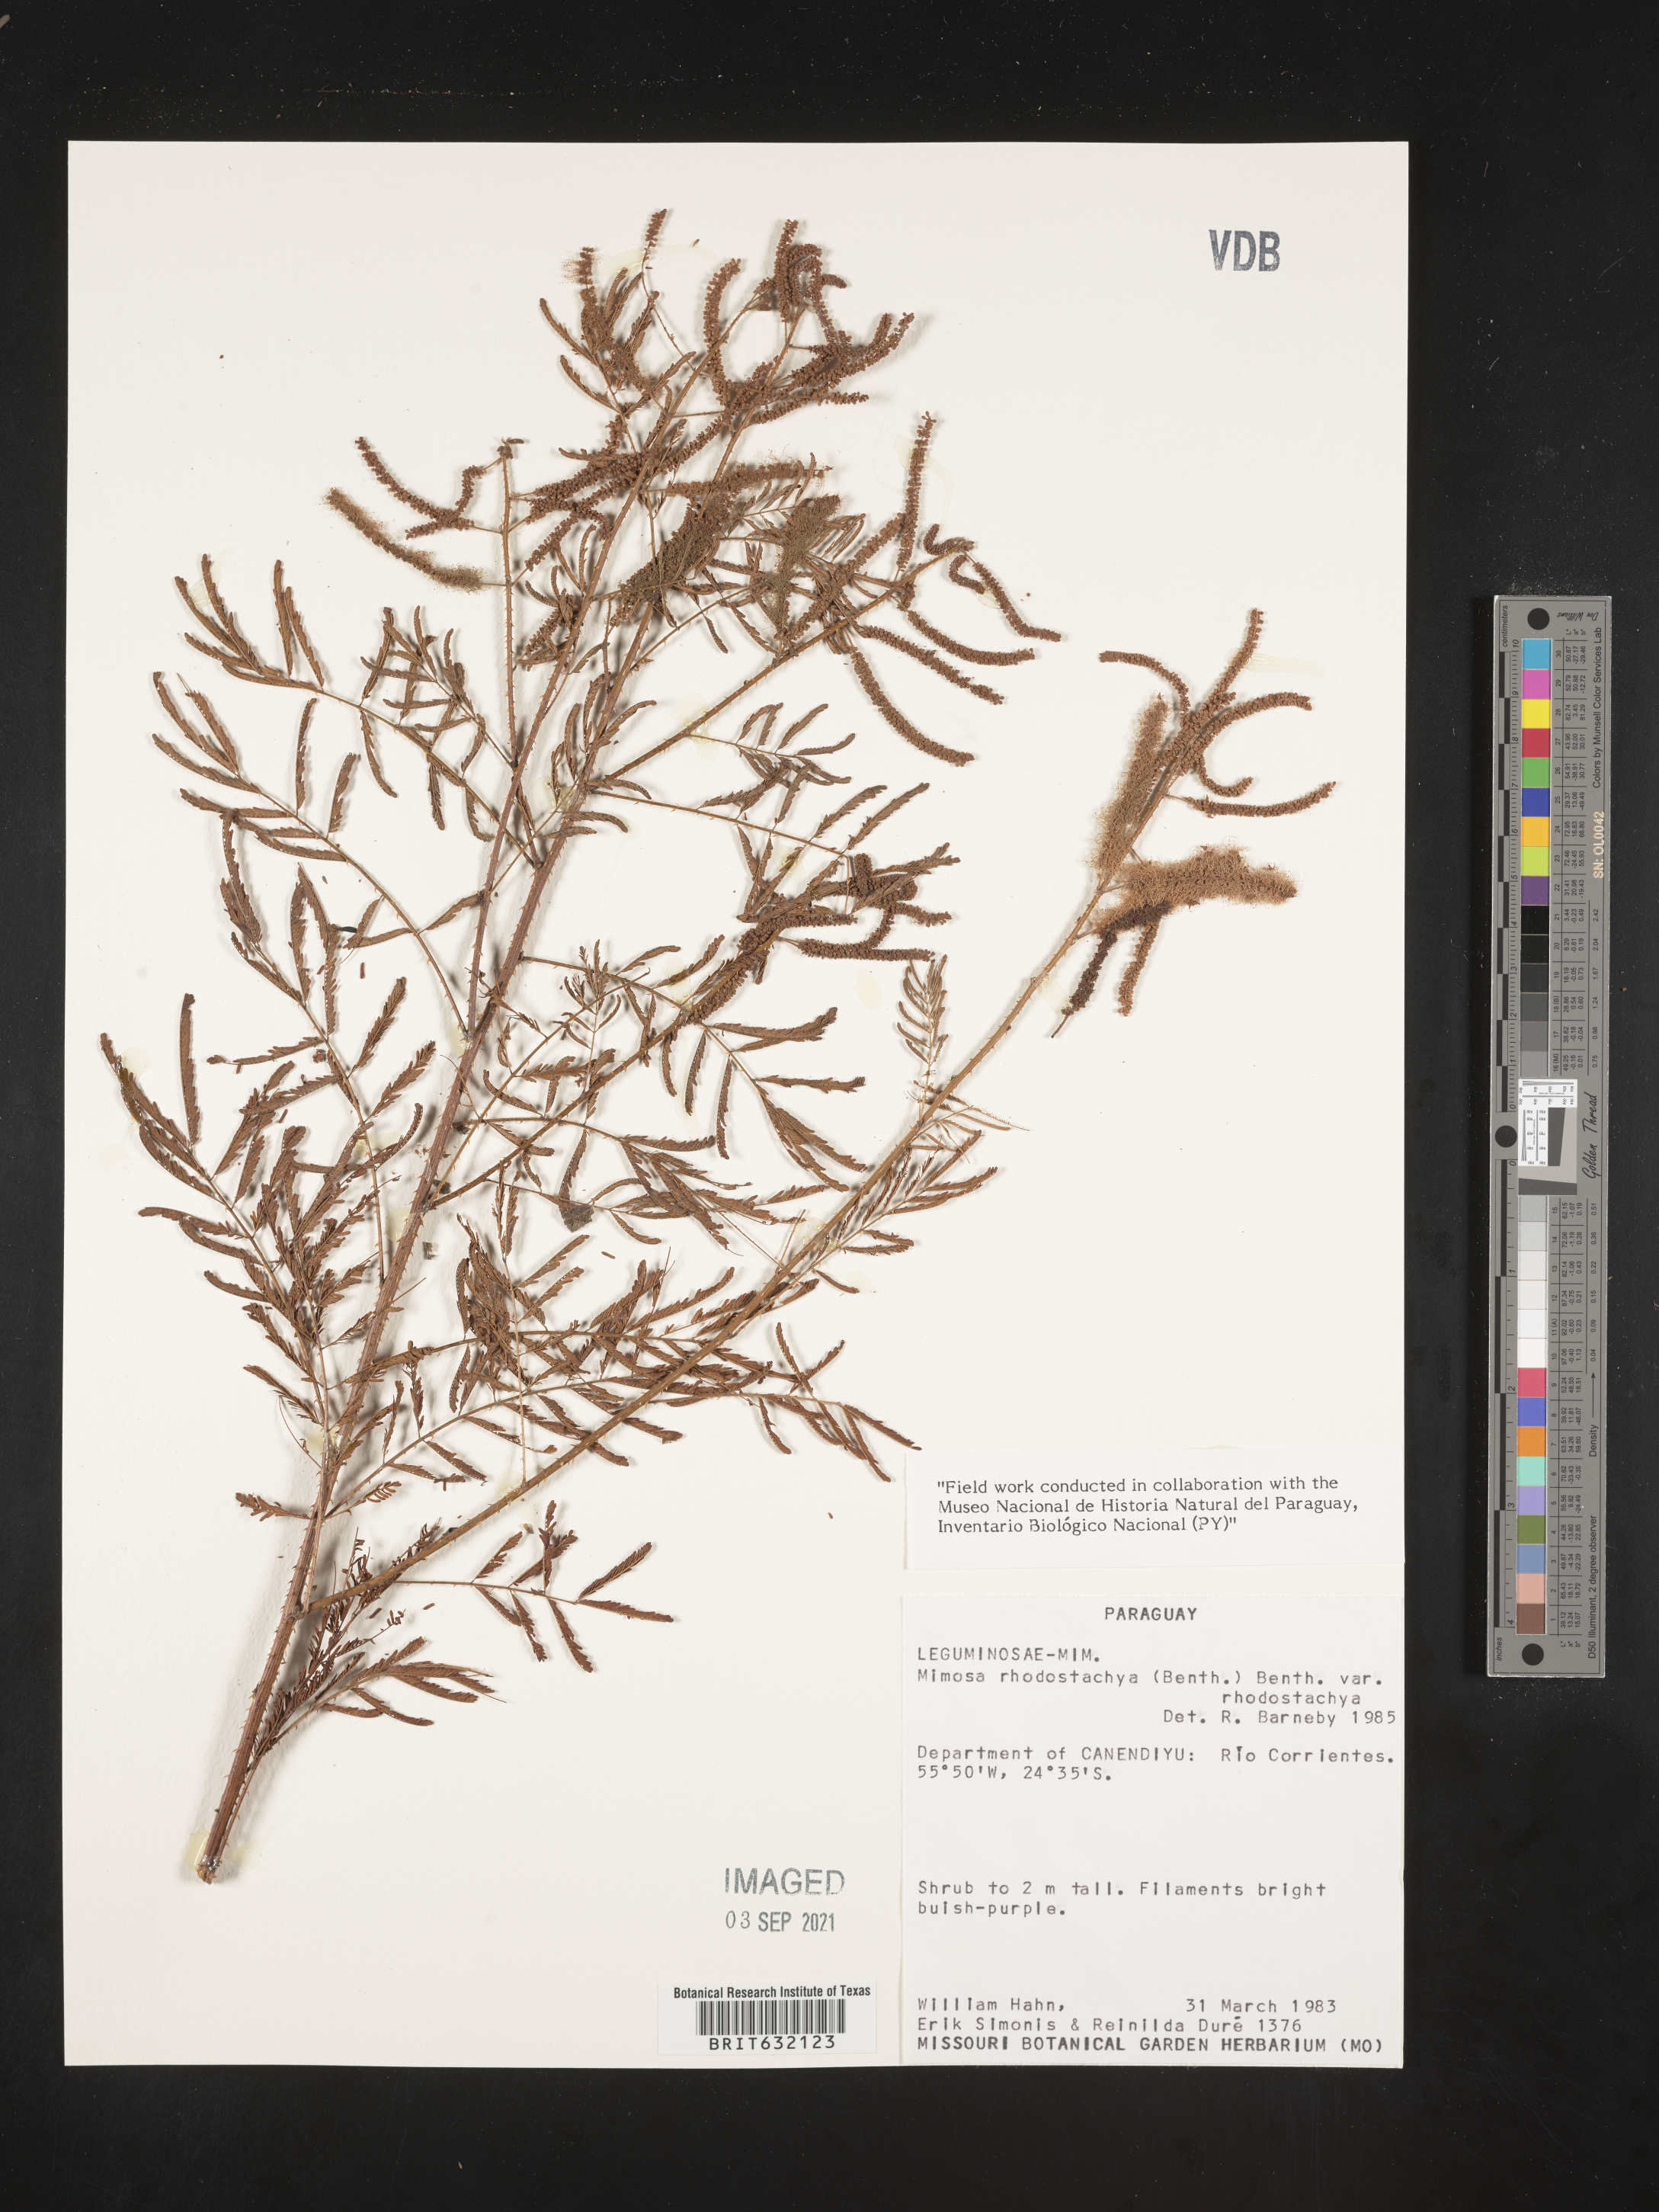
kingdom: Plantae
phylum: Tracheophyta
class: Magnoliopsida
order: Fabales
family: Fabaceae
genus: Mimosa
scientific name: Mimosa
